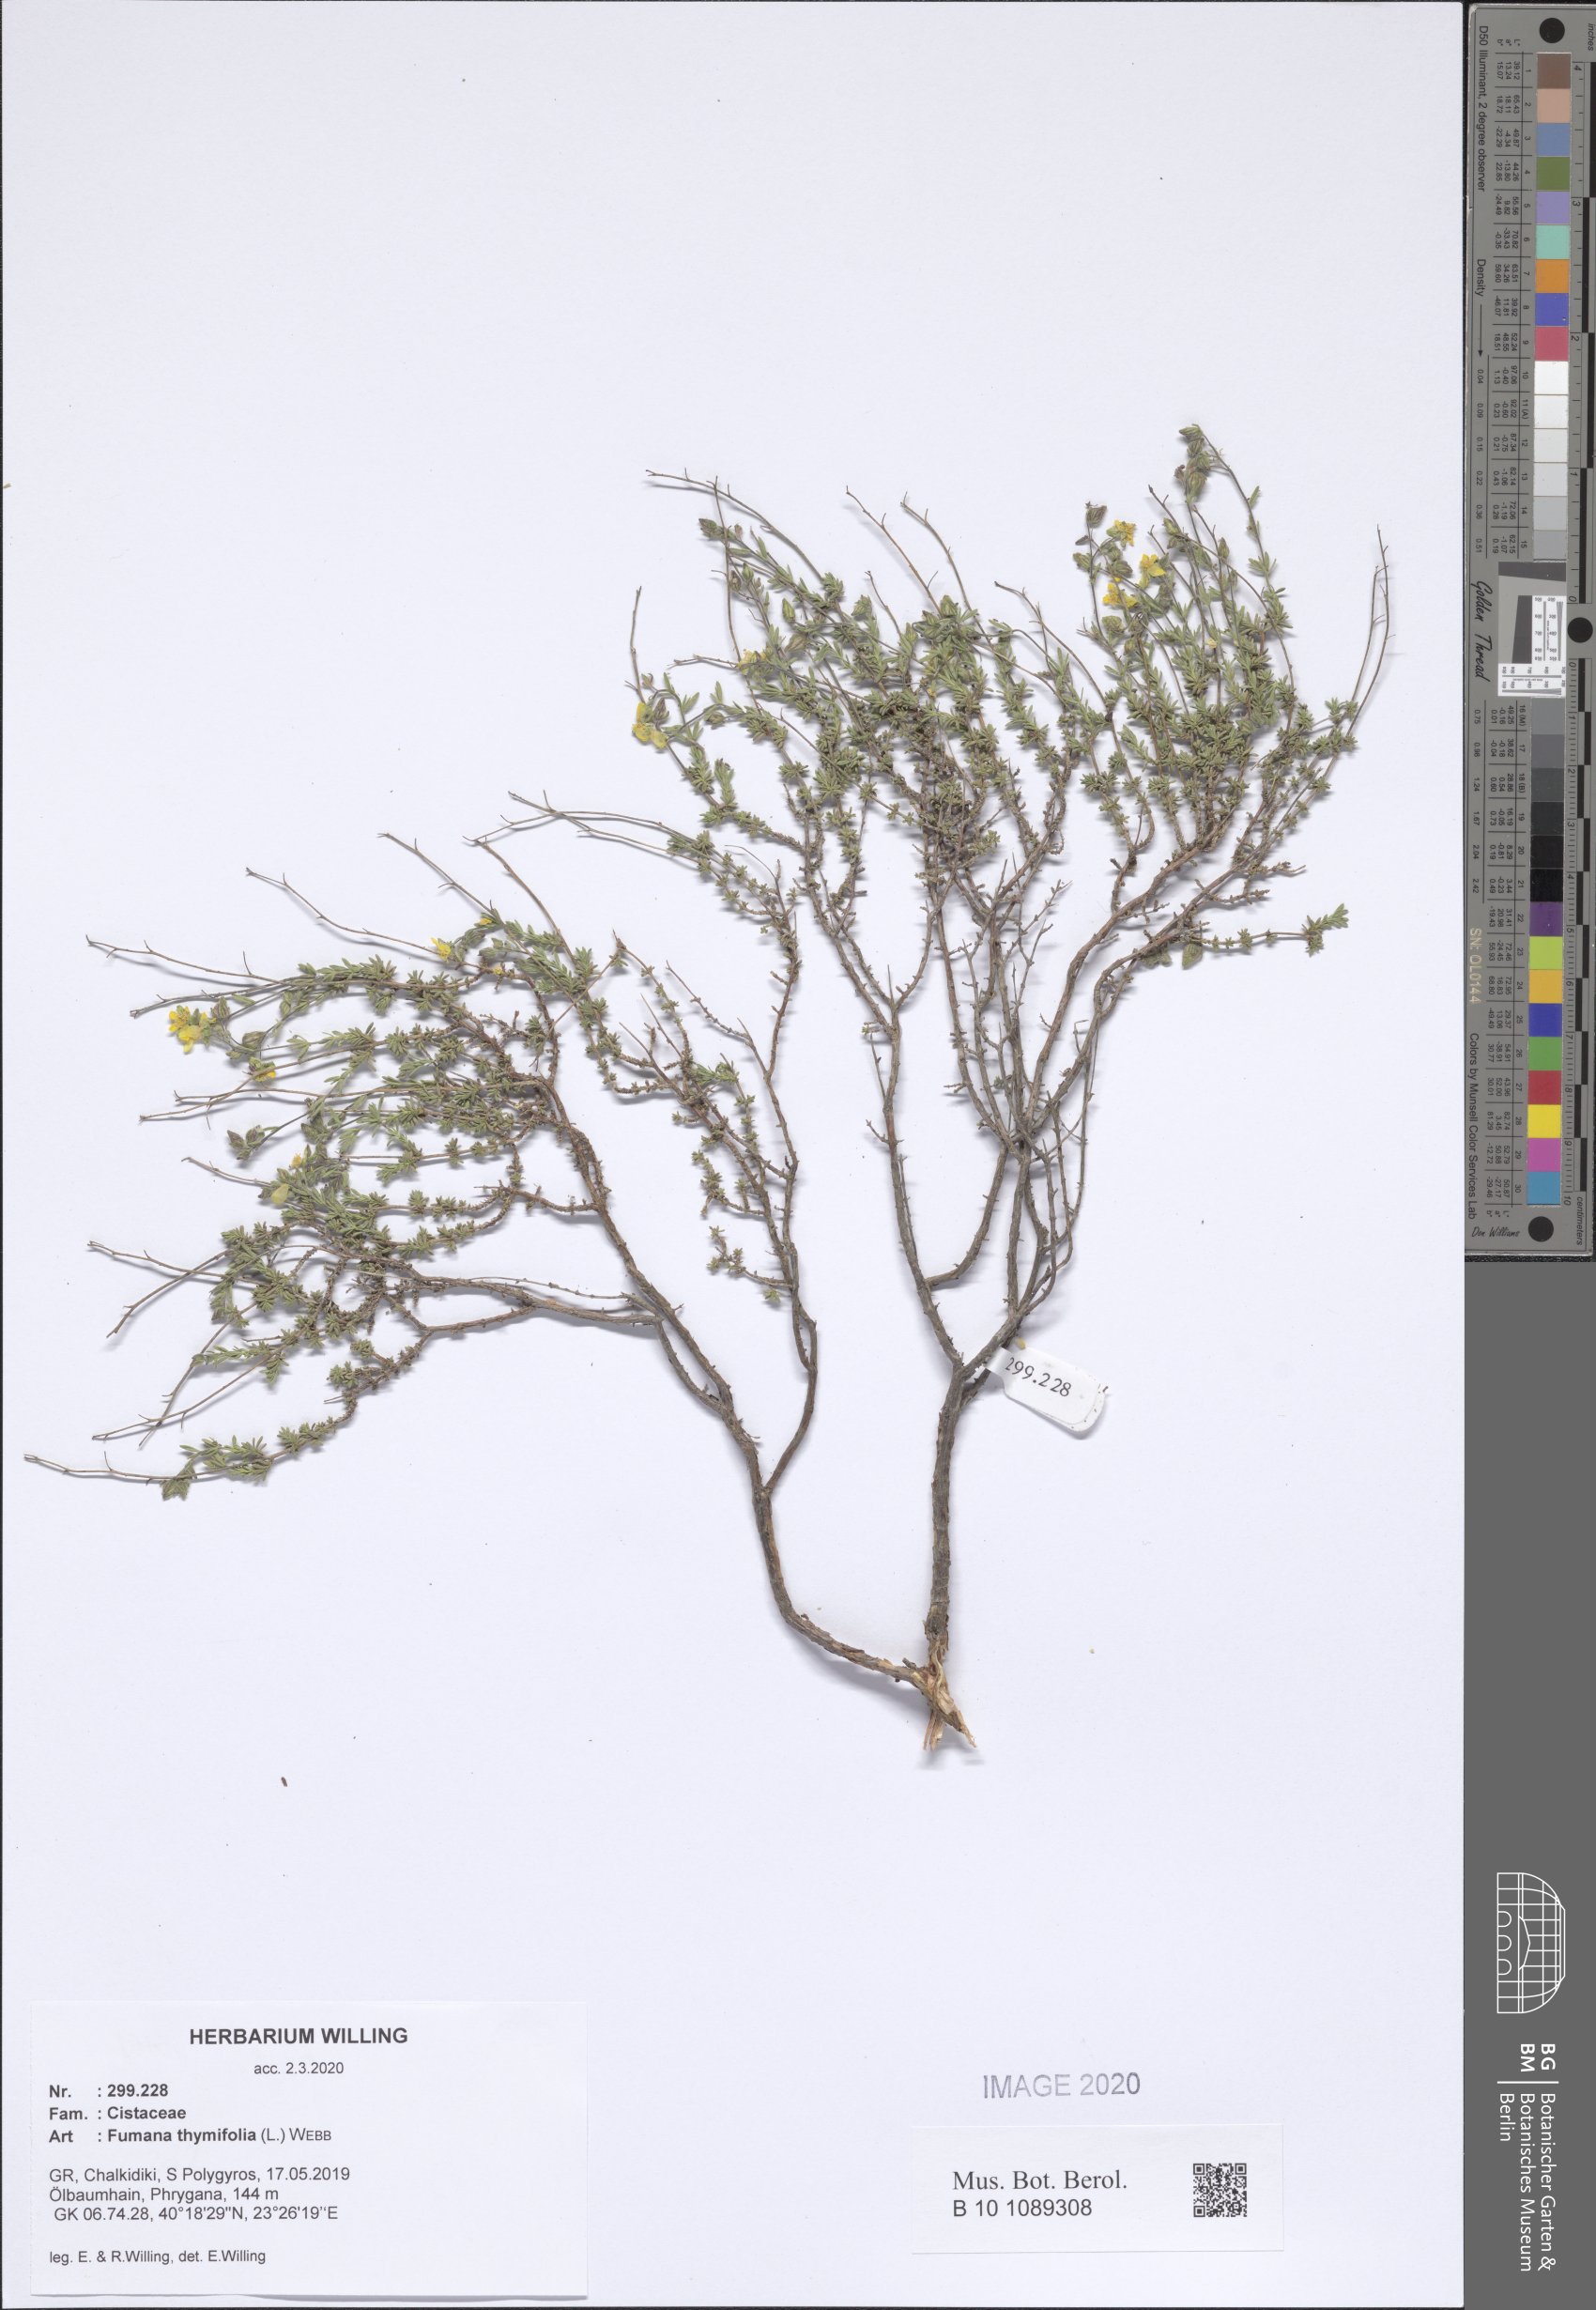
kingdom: Plantae
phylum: Tracheophyta
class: Magnoliopsida
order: Malvales
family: Cistaceae
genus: Fumana
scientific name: Fumana thymifolia
